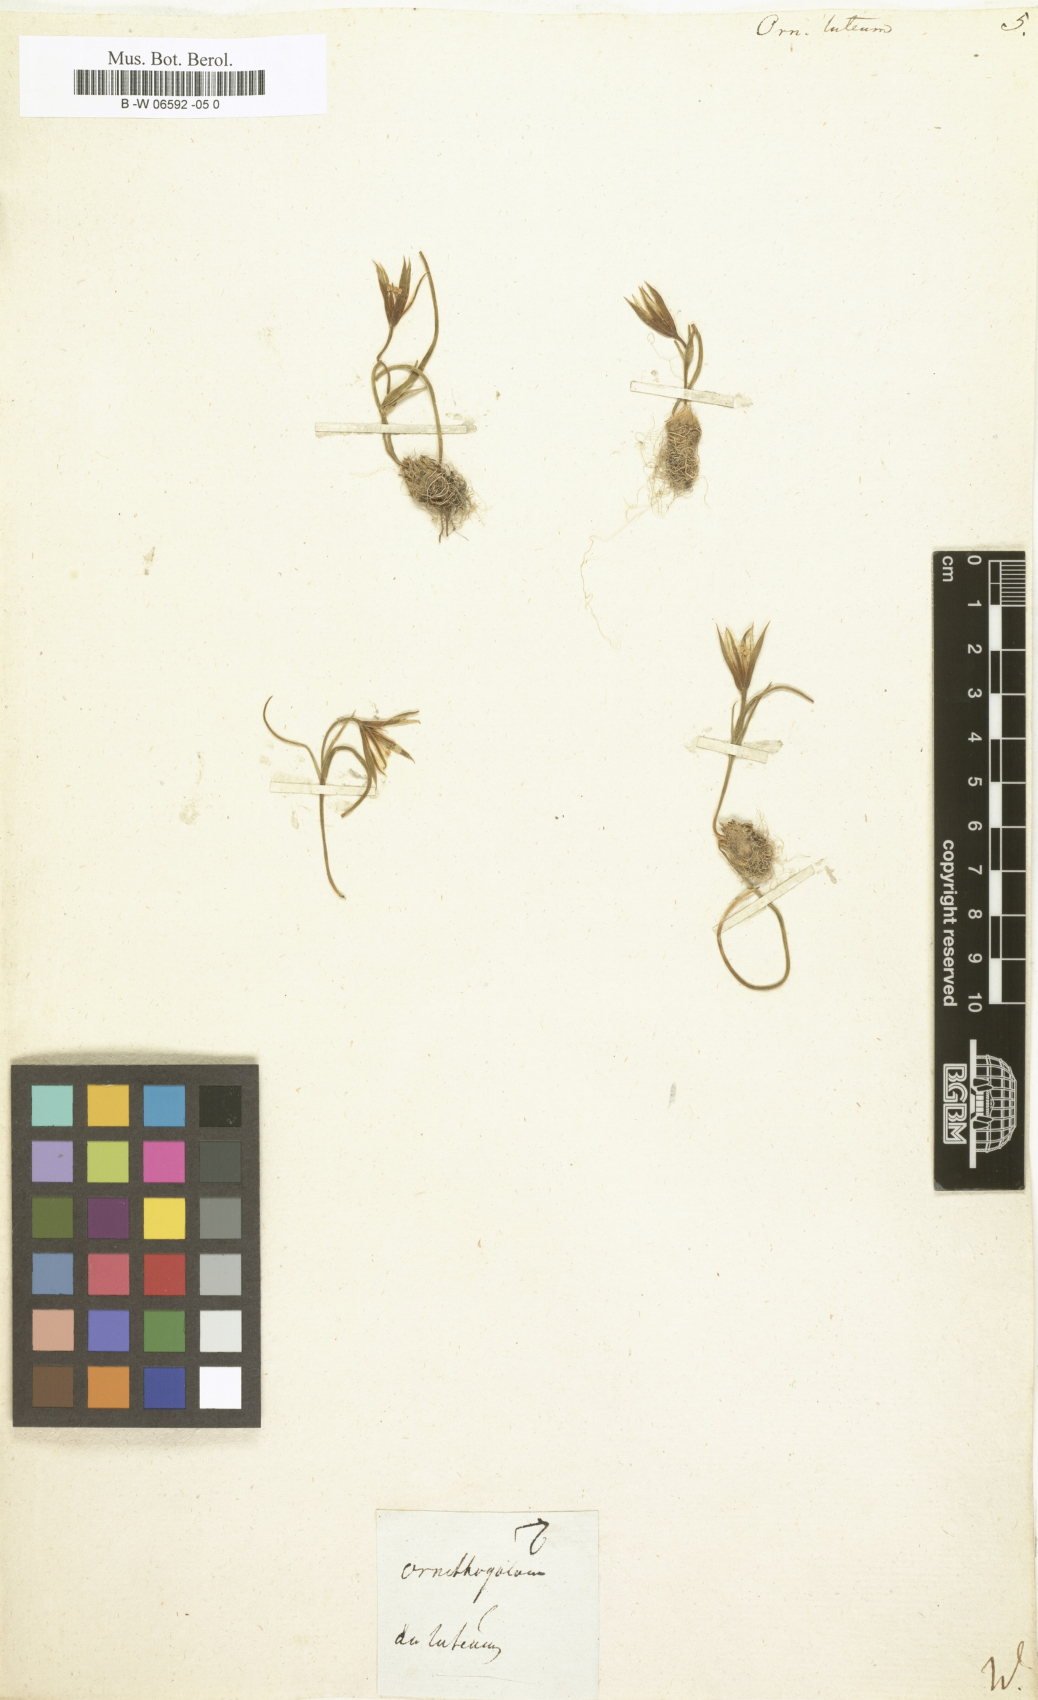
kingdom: Plantae
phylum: Tracheophyta
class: Liliopsida
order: Liliales
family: Liliaceae
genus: Gagea
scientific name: Gagea lutea
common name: Yellow star-of-bethlehem
